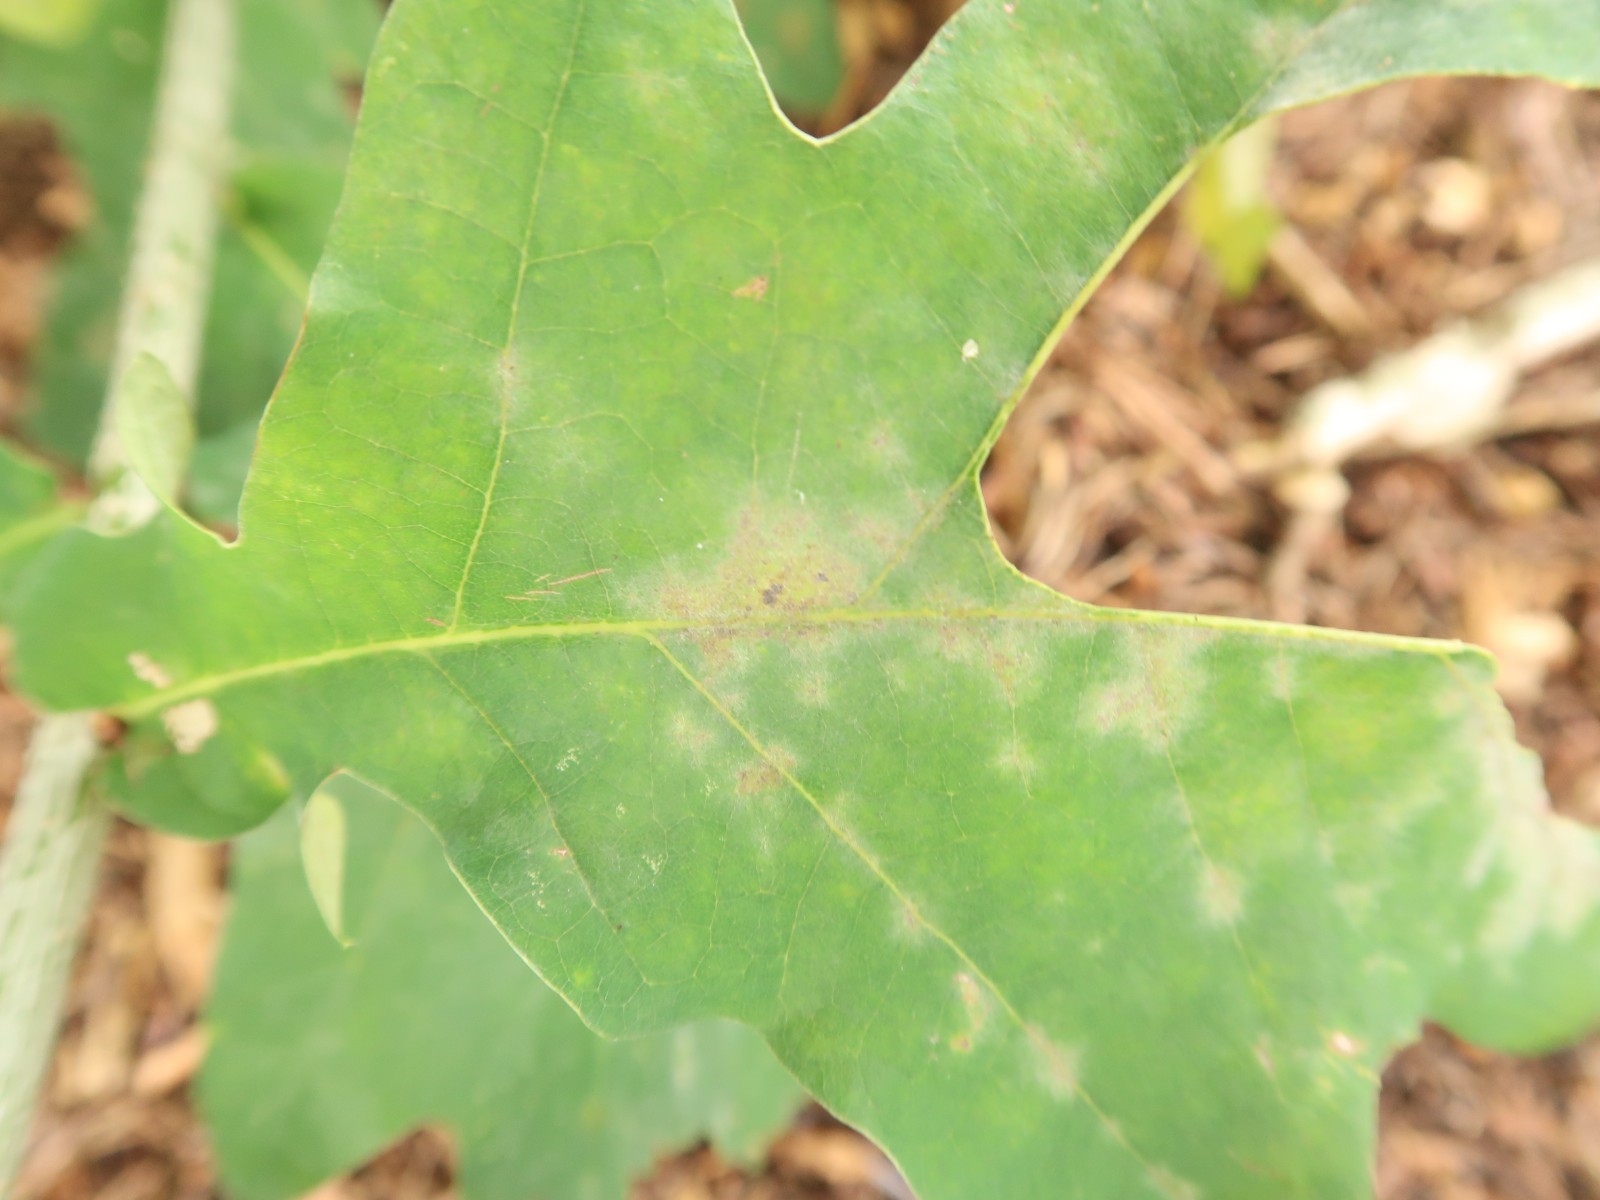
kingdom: Fungi
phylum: Ascomycota
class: Leotiomycetes
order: Helotiales
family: Erysiphaceae
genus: Erysiphe
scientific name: Erysiphe alphitoides
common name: ege-meldug
